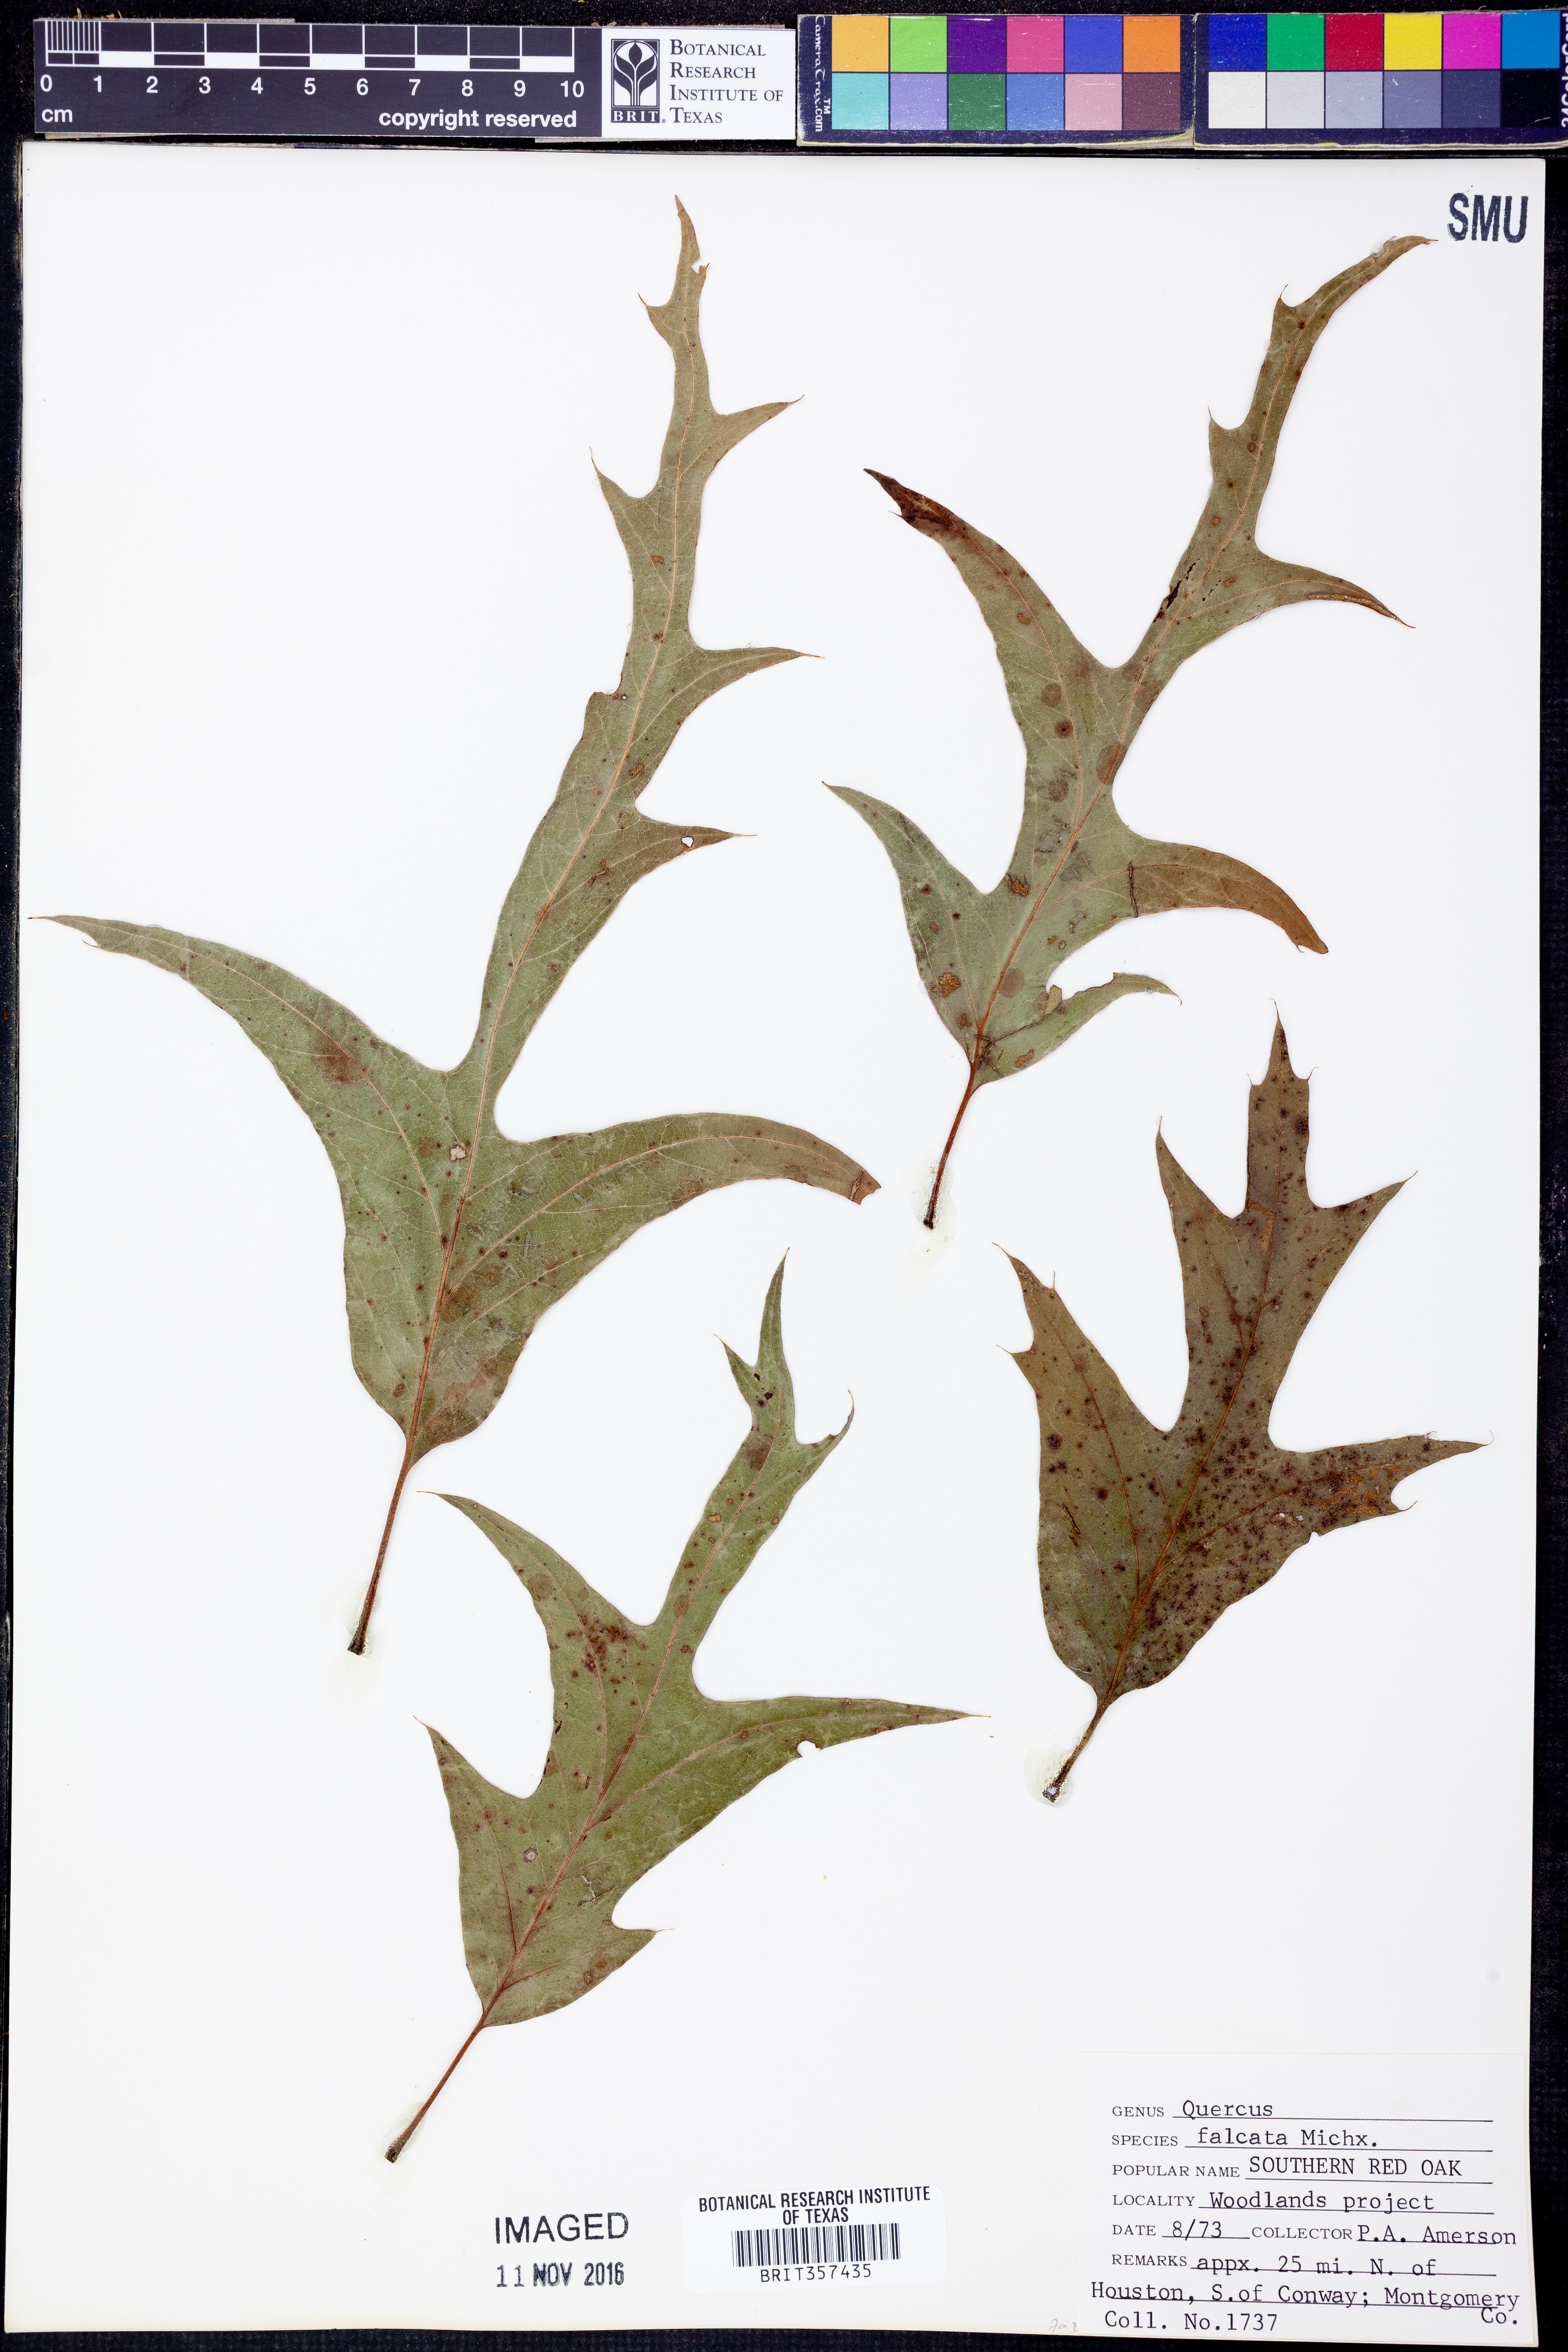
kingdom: Plantae
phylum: Tracheophyta
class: Magnoliopsida
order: Fagales
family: Fagaceae
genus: Quercus
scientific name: Quercus falcata
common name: Southern red oak
